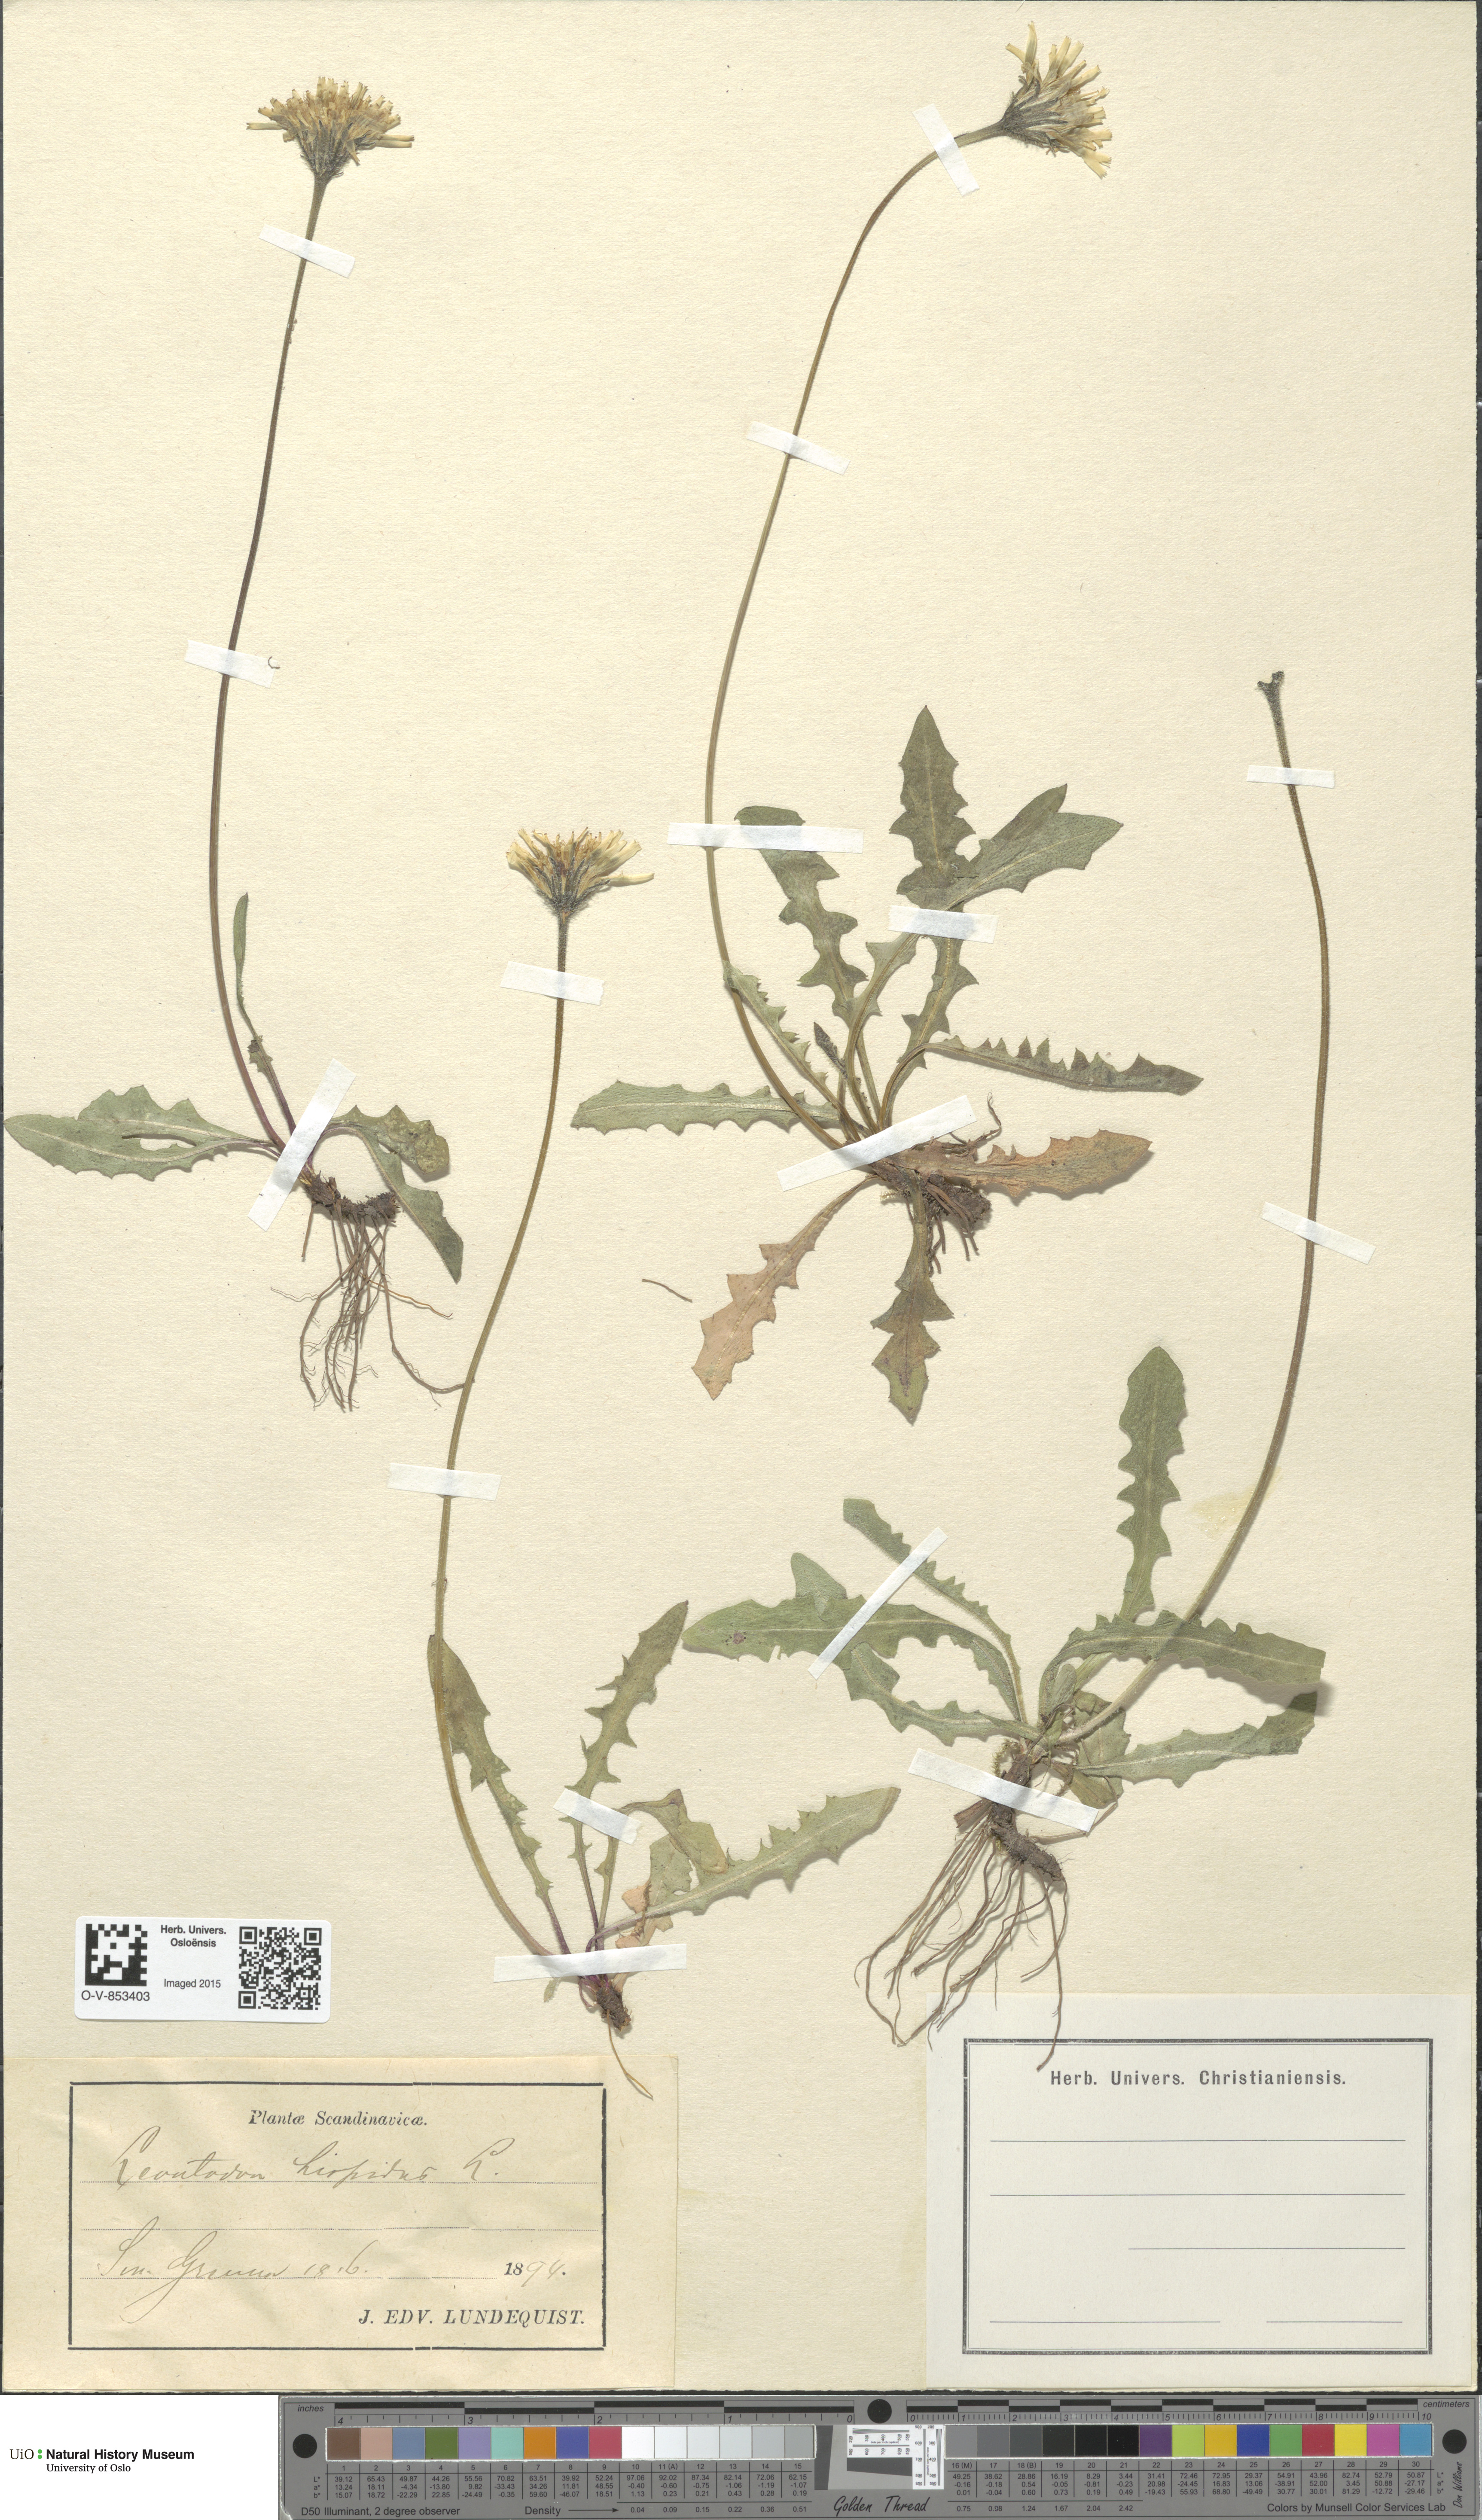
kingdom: Plantae
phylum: Tracheophyta
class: Magnoliopsida
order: Asterales
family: Asteraceae
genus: Leontodon
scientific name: Leontodon hispidus
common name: Rough hawkbit
